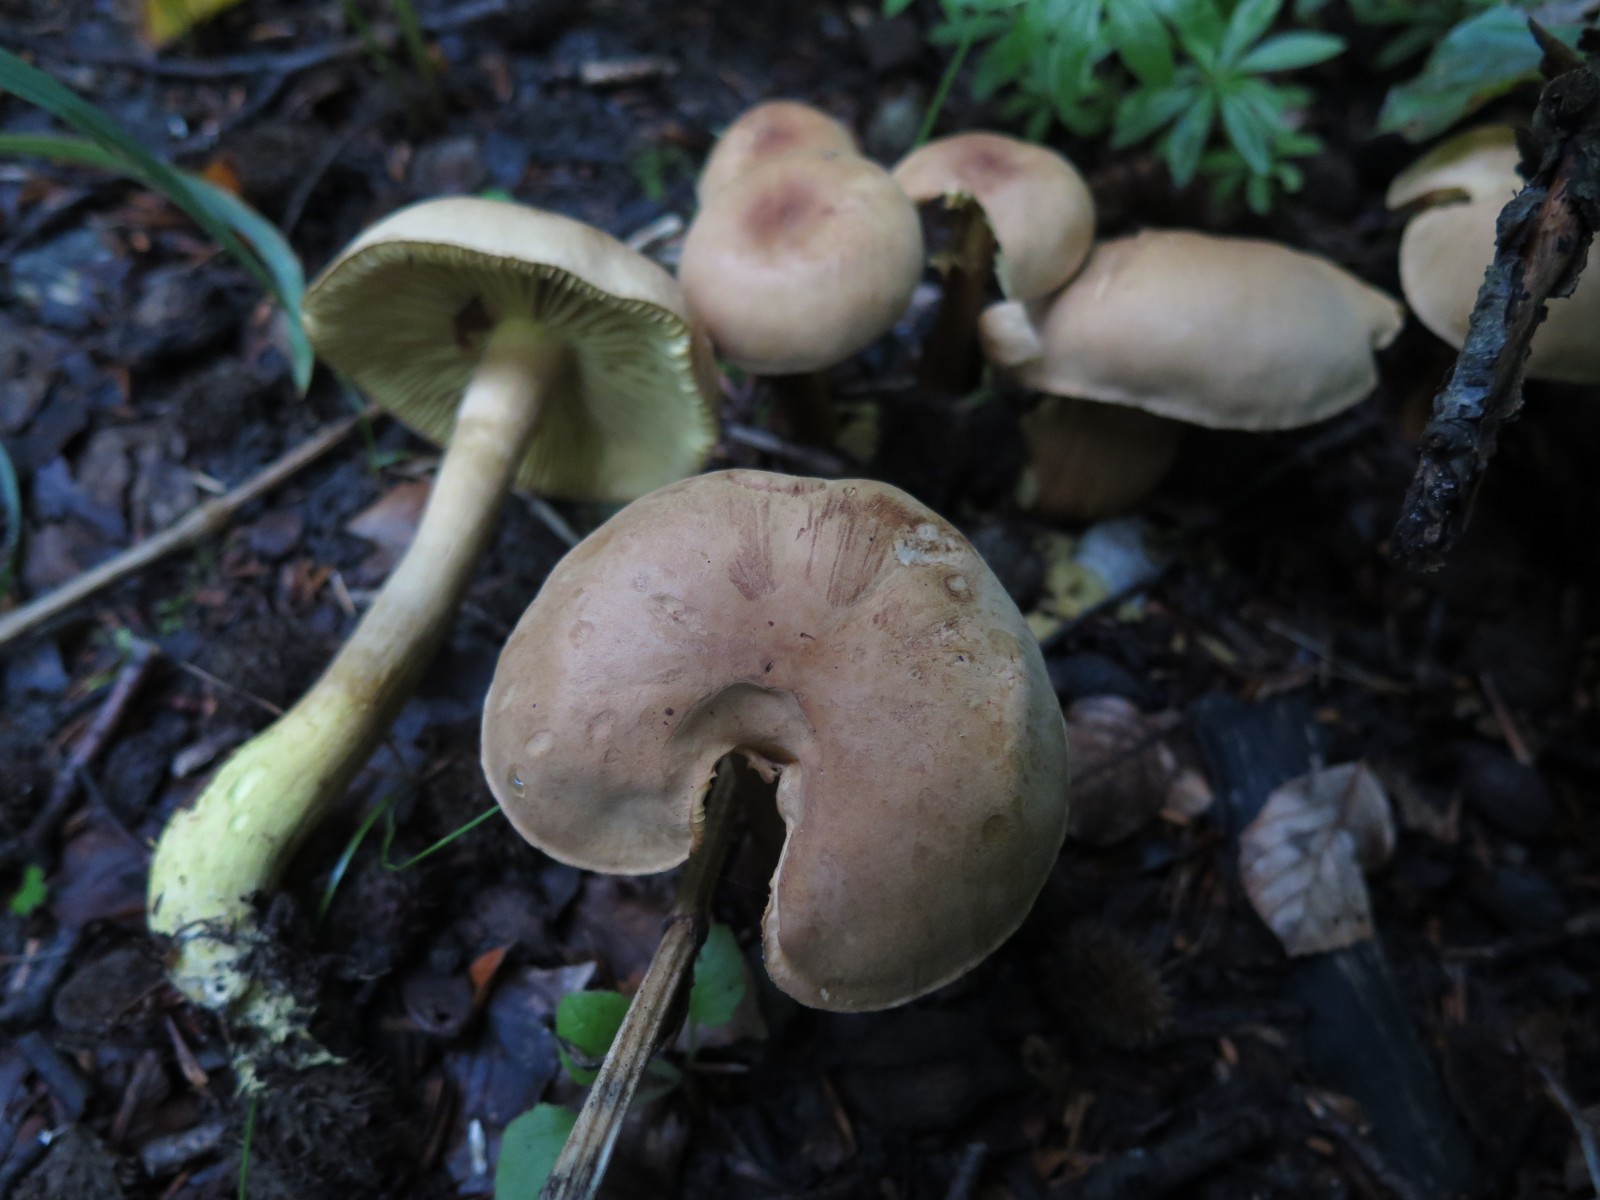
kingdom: Fungi
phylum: Basidiomycota
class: Agaricomycetes
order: Agaricales
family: Tricholomataceae
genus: Tricholoma
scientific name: Tricholoma sulphureum
